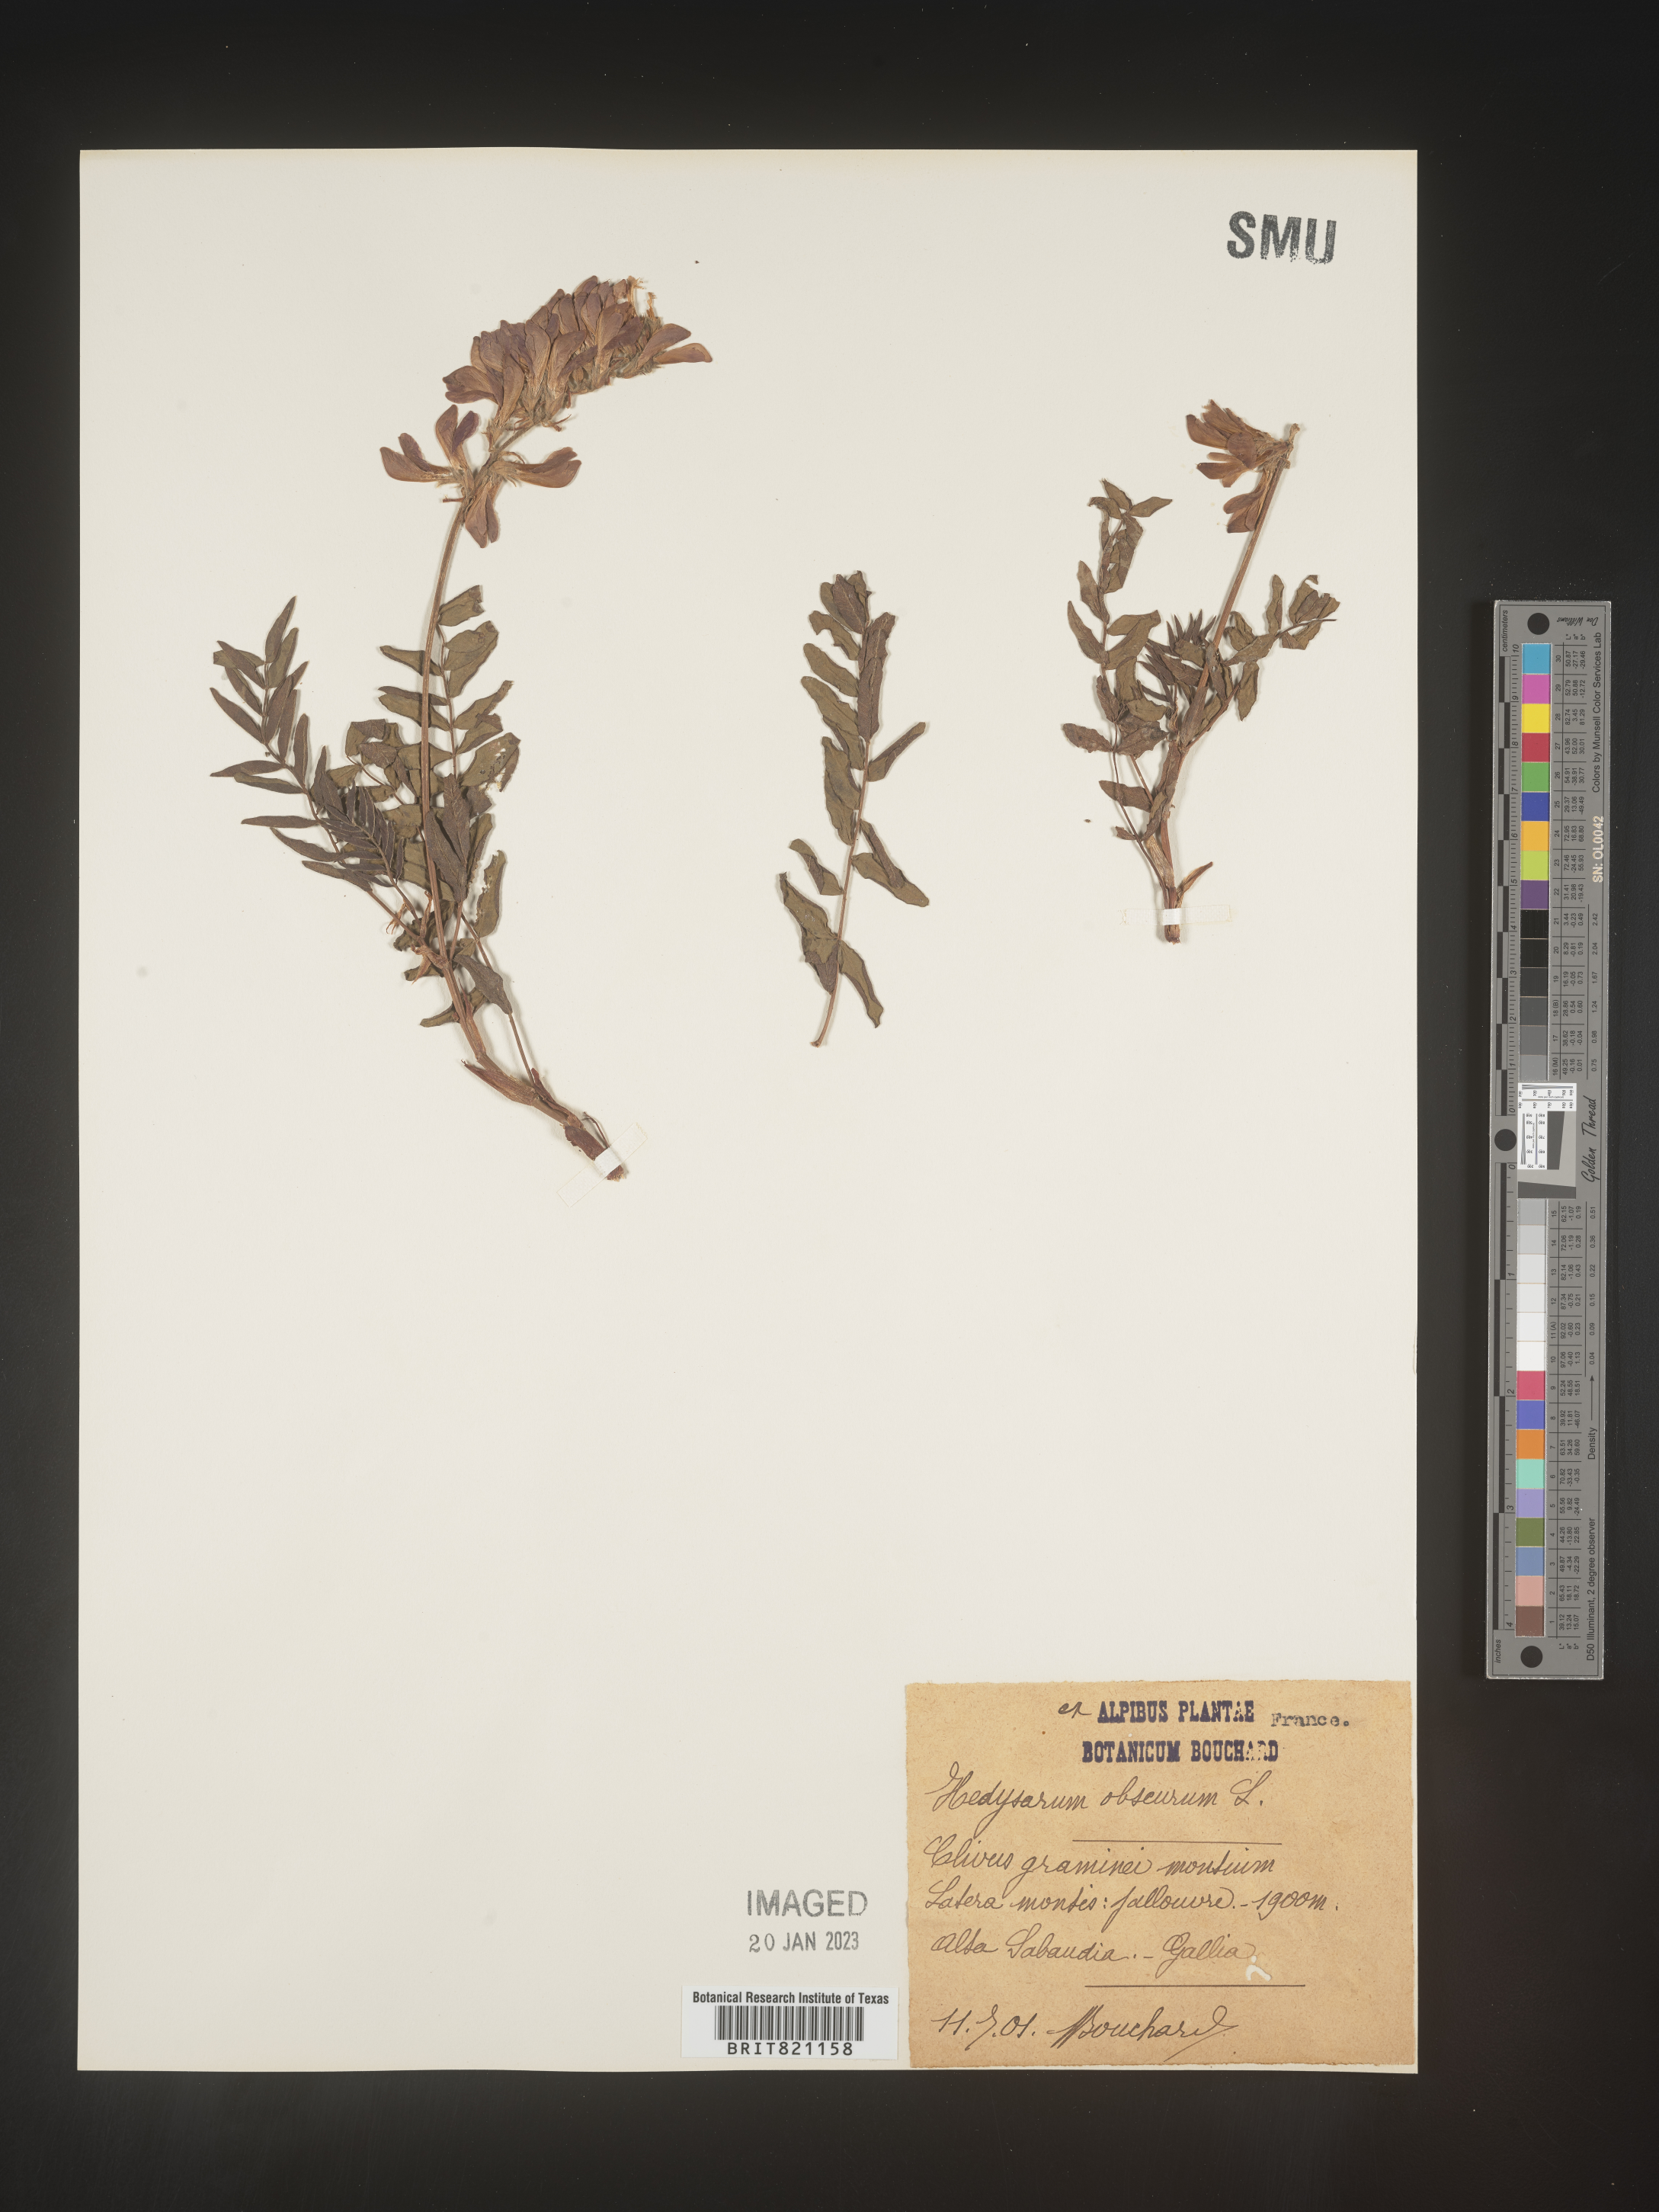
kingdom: Plantae
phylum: Tracheophyta
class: Magnoliopsida
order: Fabales
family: Fabaceae
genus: Hedysarum
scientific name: Hedysarum
